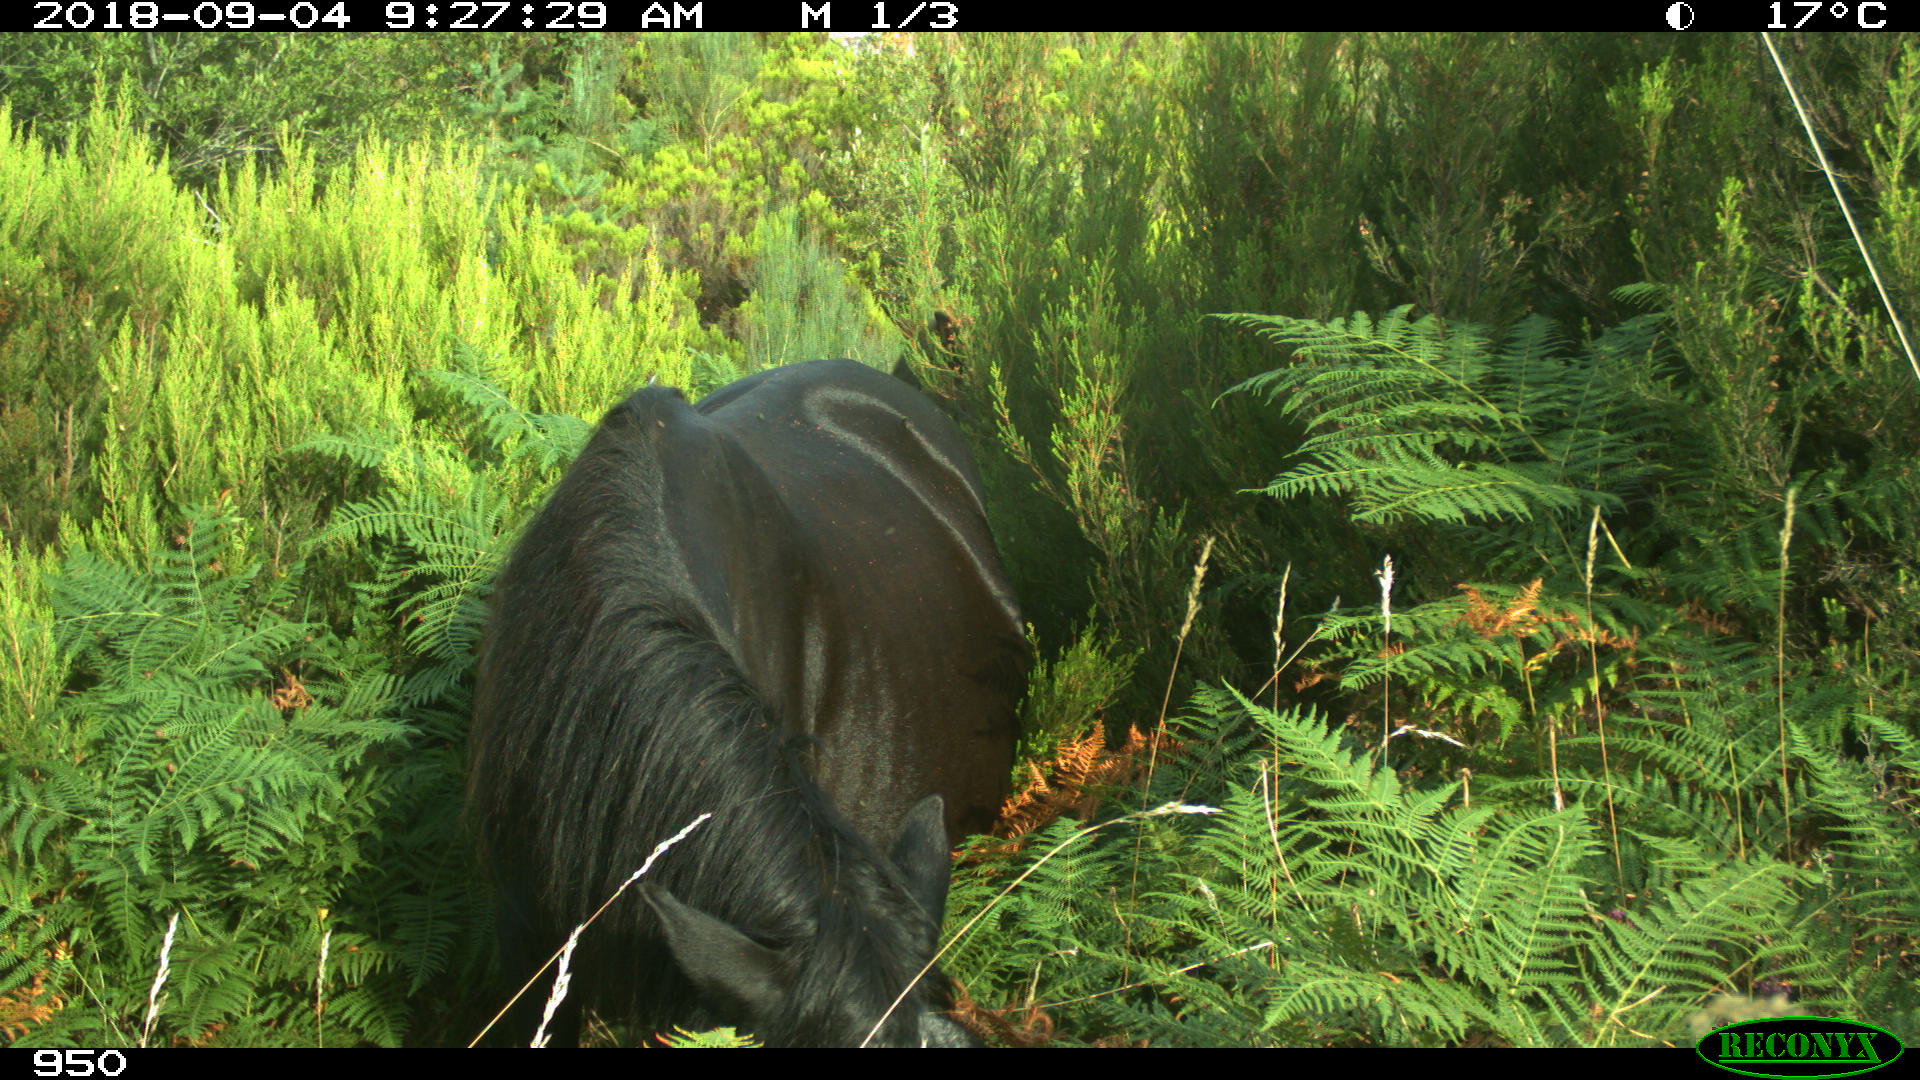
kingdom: Animalia
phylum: Chordata
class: Mammalia
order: Perissodactyla
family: Equidae
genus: Equus
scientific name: Equus caballus
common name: Horse
